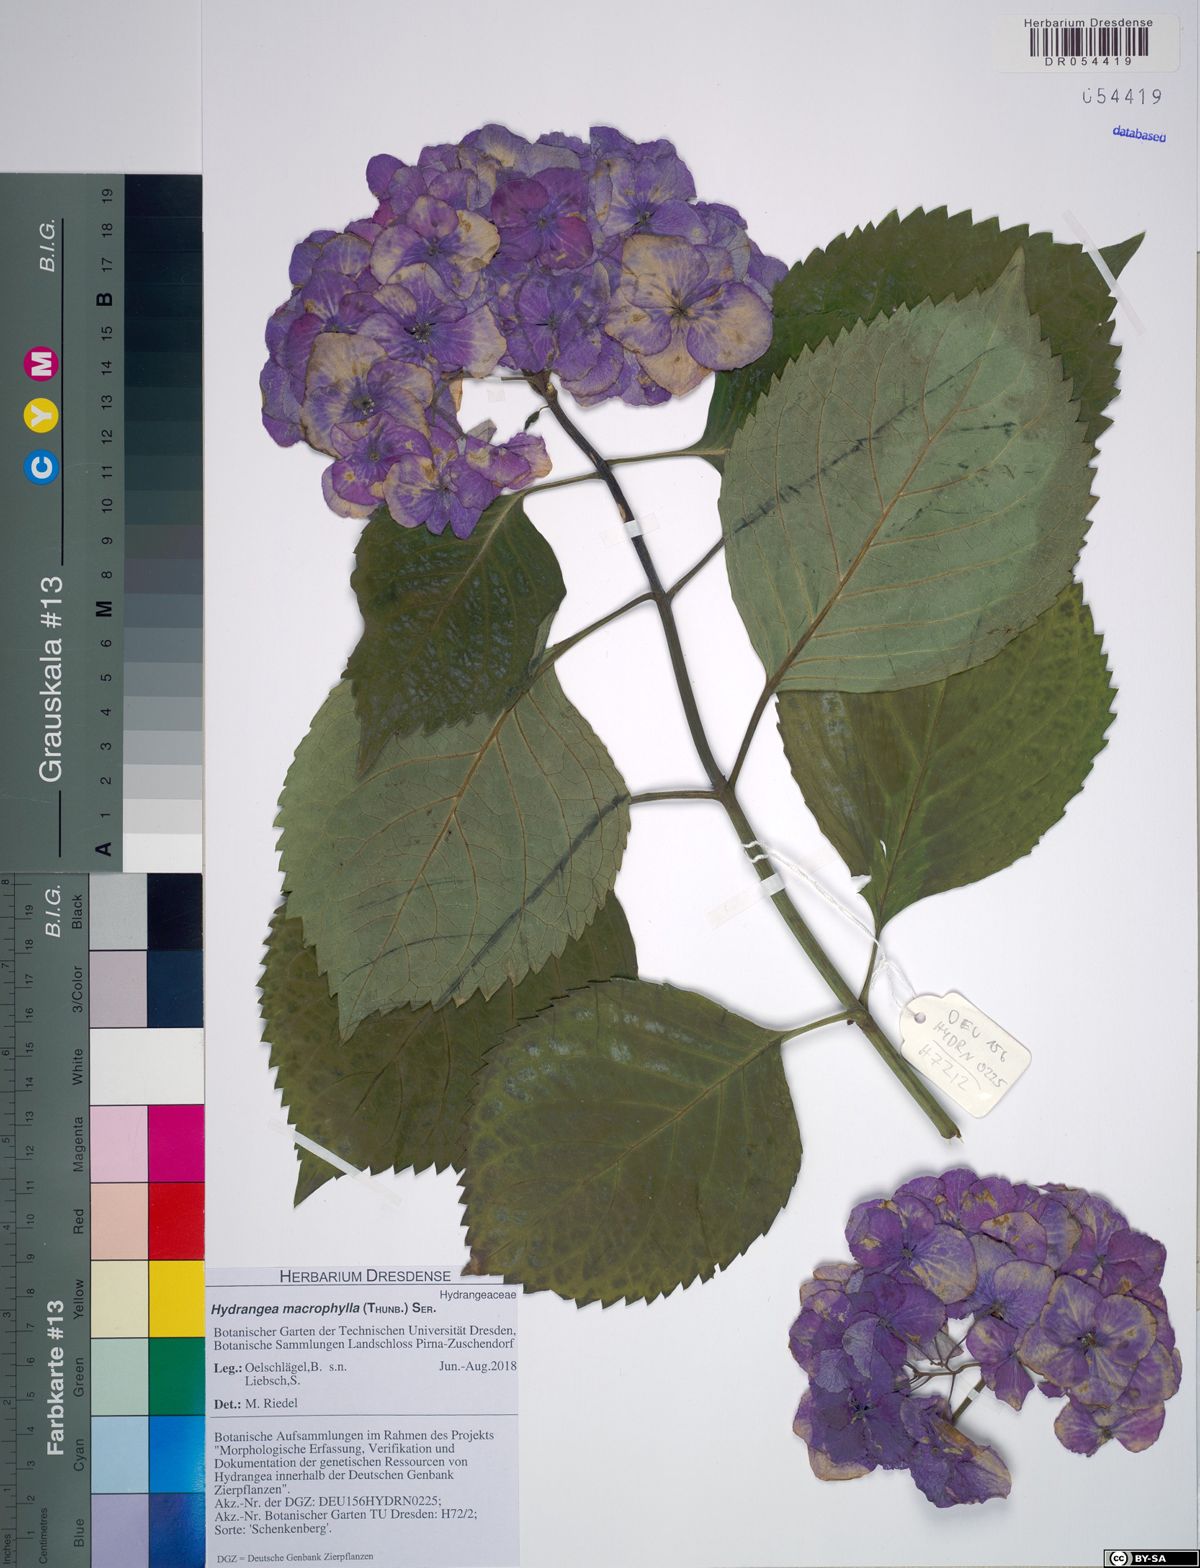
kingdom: Plantae
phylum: Tracheophyta
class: Magnoliopsida
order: Cornales
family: Hydrangeaceae
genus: Hydrangea
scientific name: Hydrangea macrophylla
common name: Hydrangea
